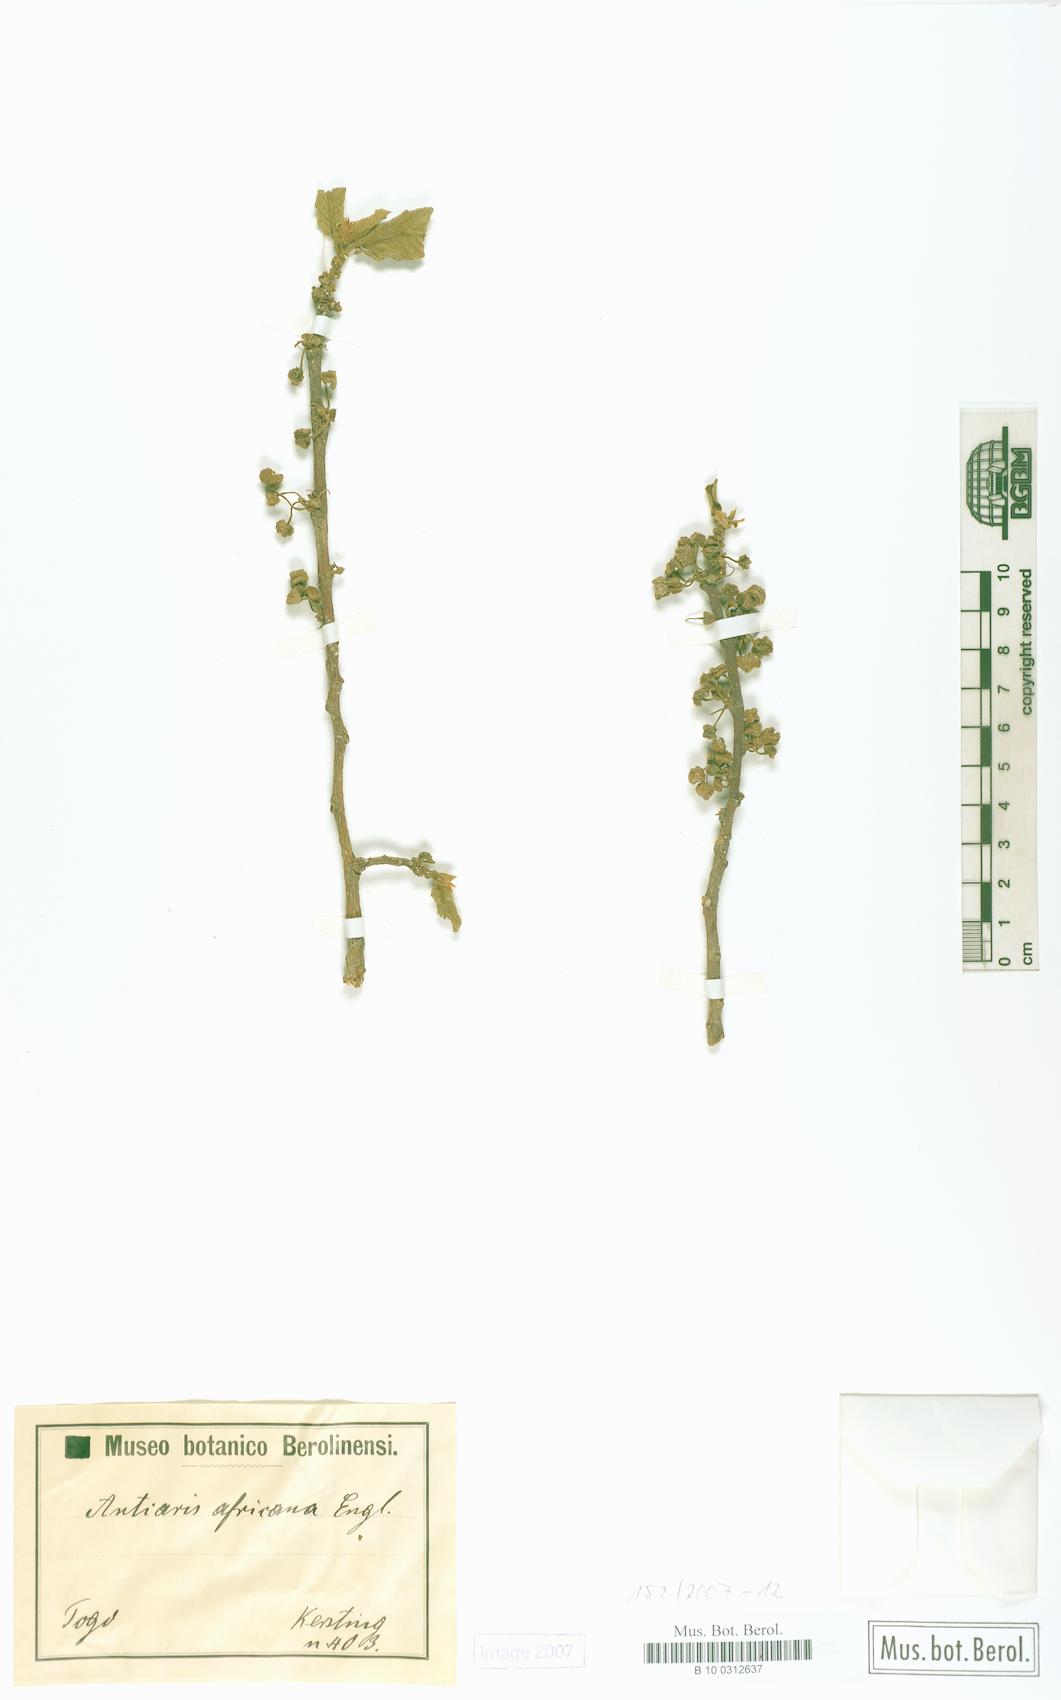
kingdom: Plantae
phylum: Tracheophyta
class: Magnoliopsida
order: Rosales
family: Moraceae
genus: Antiaris
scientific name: Antiaris toxicaria
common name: Sackingtree
